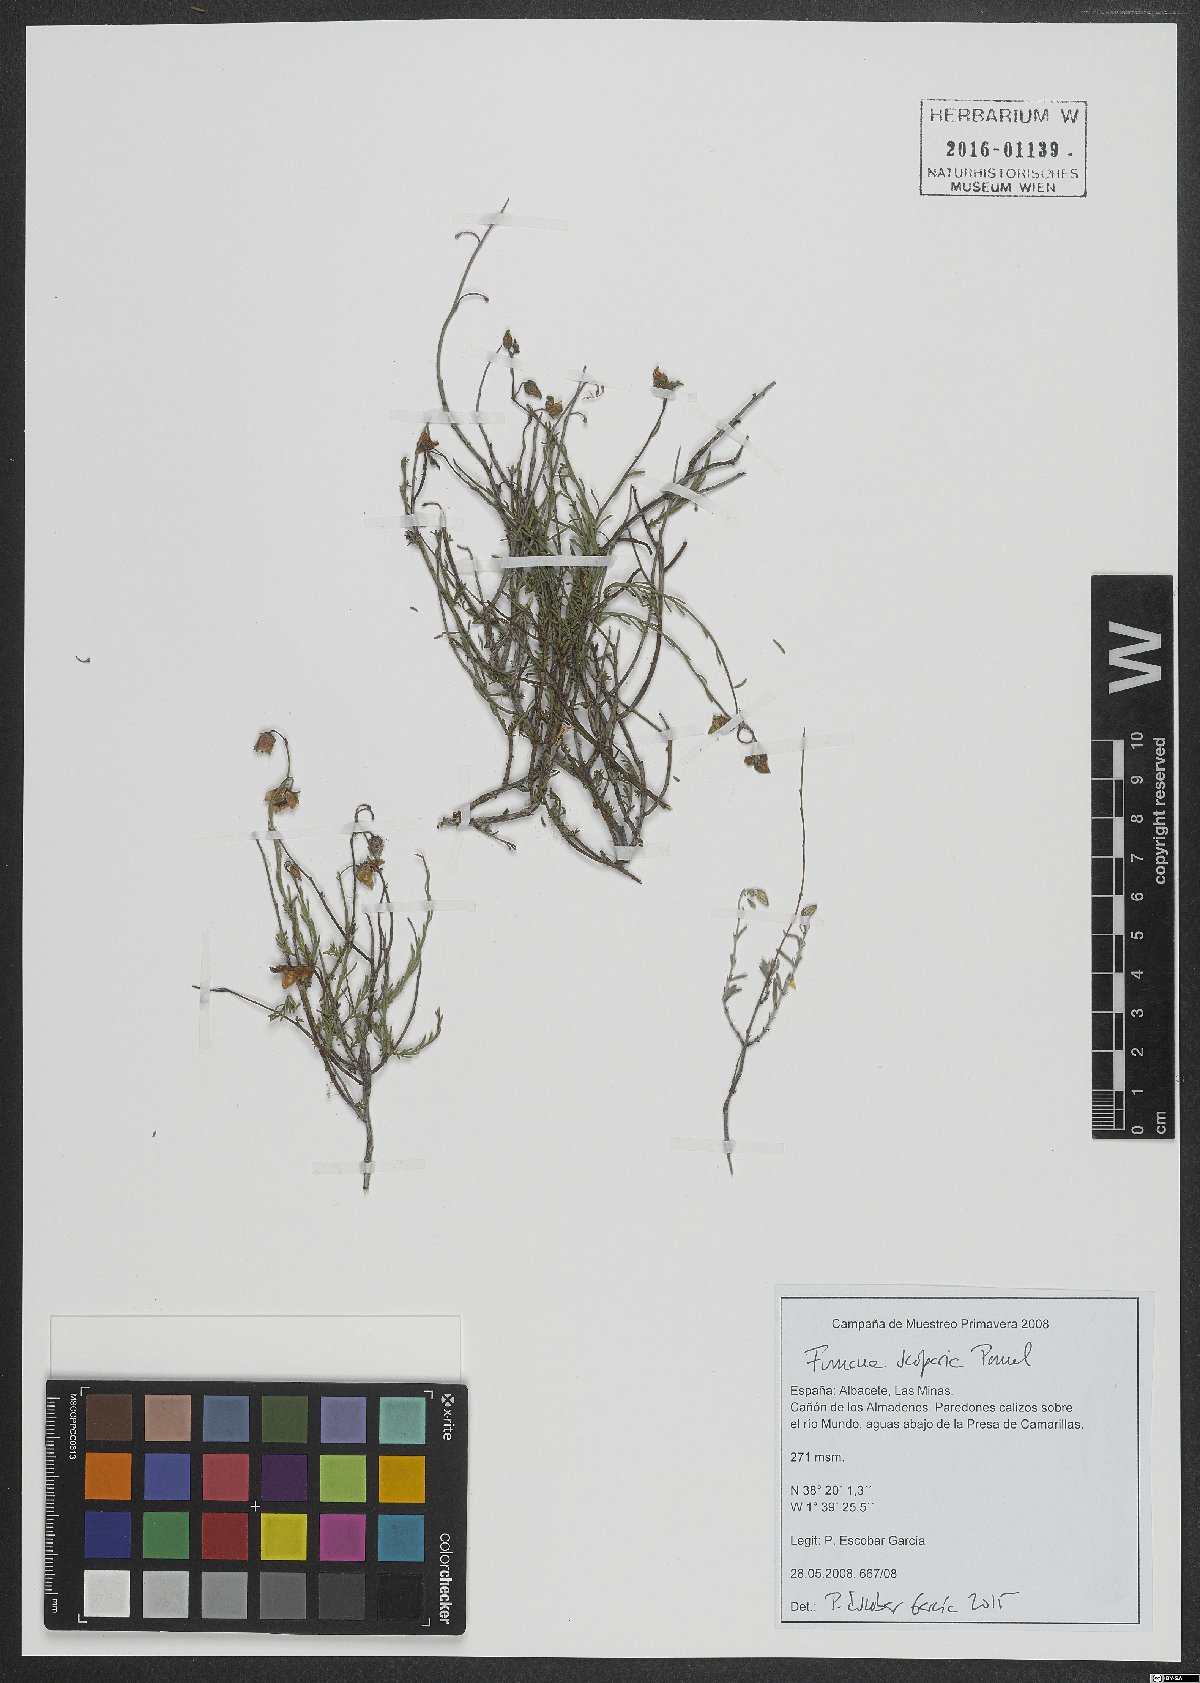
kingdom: Plantae
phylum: Tracheophyta
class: Magnoliopsida
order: Malvales
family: Cistaceae
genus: Fumana
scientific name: Fumana scoparia
